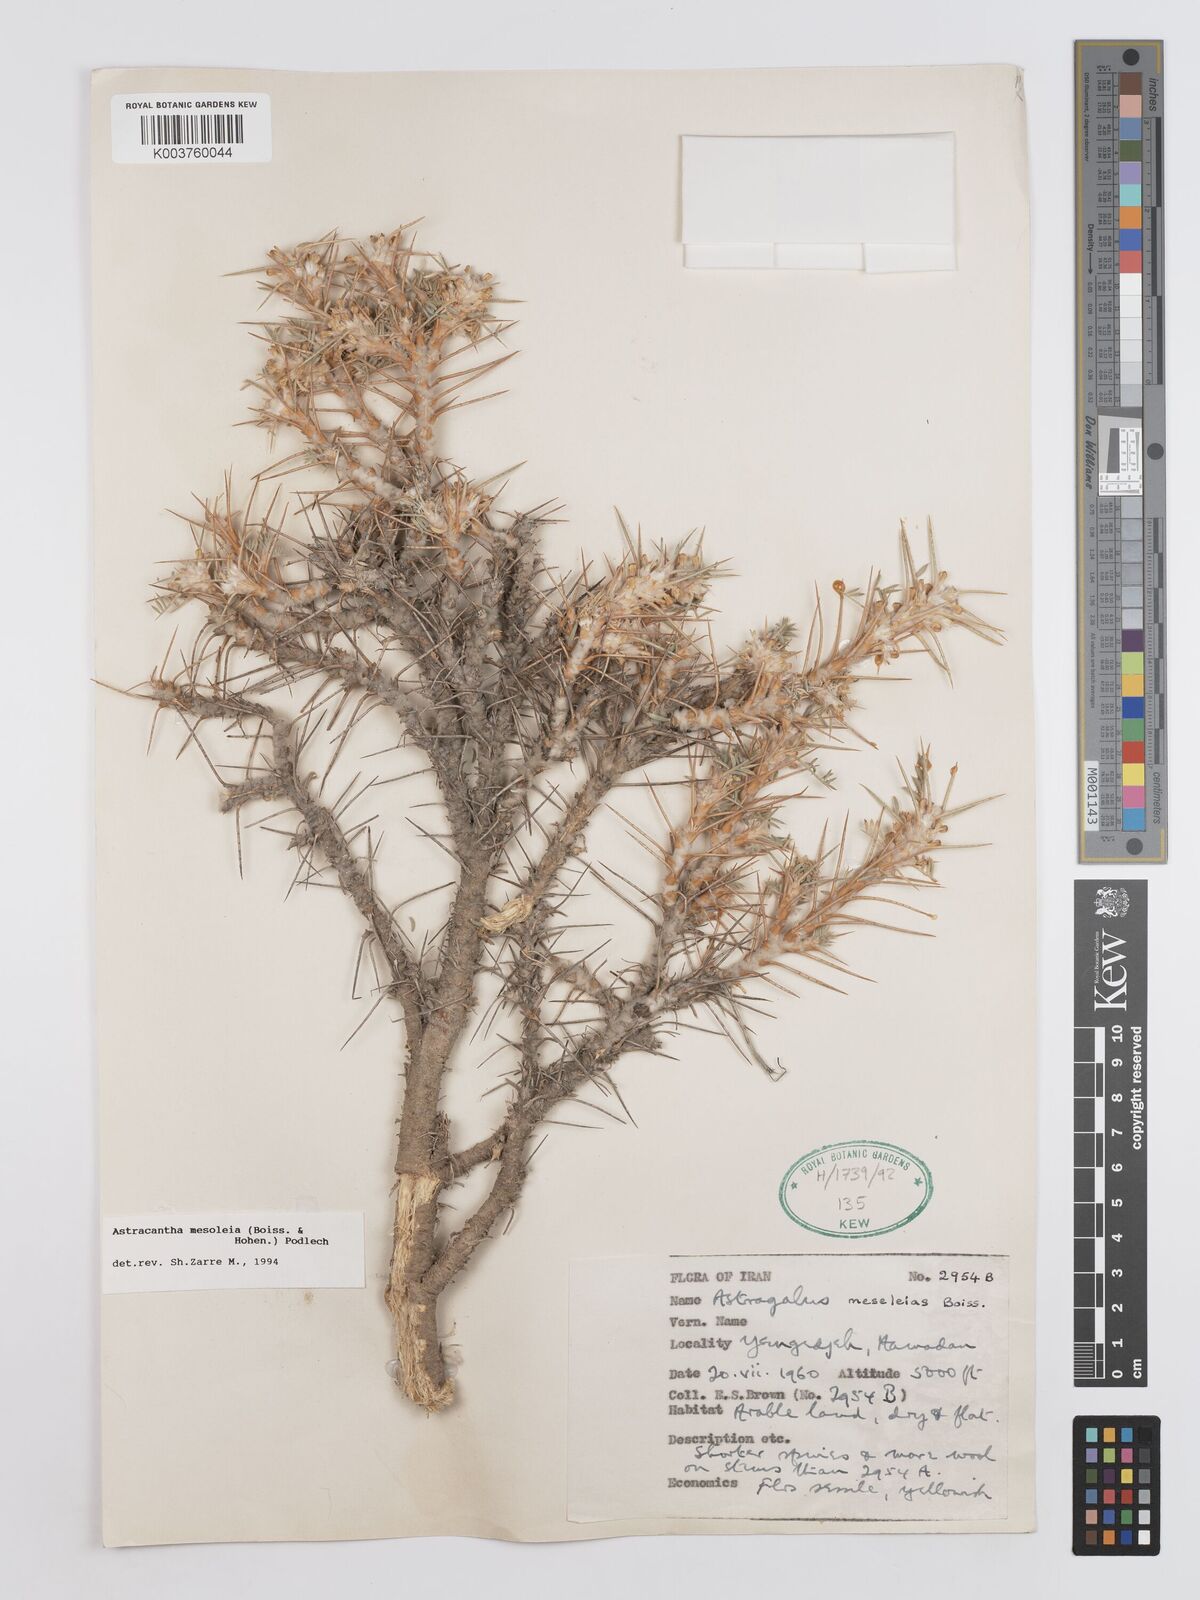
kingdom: Plantae
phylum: Tracheophyta
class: Magnoliopsida
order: Fabales
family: Fabaceae
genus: Astragalus
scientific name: Astragalus
